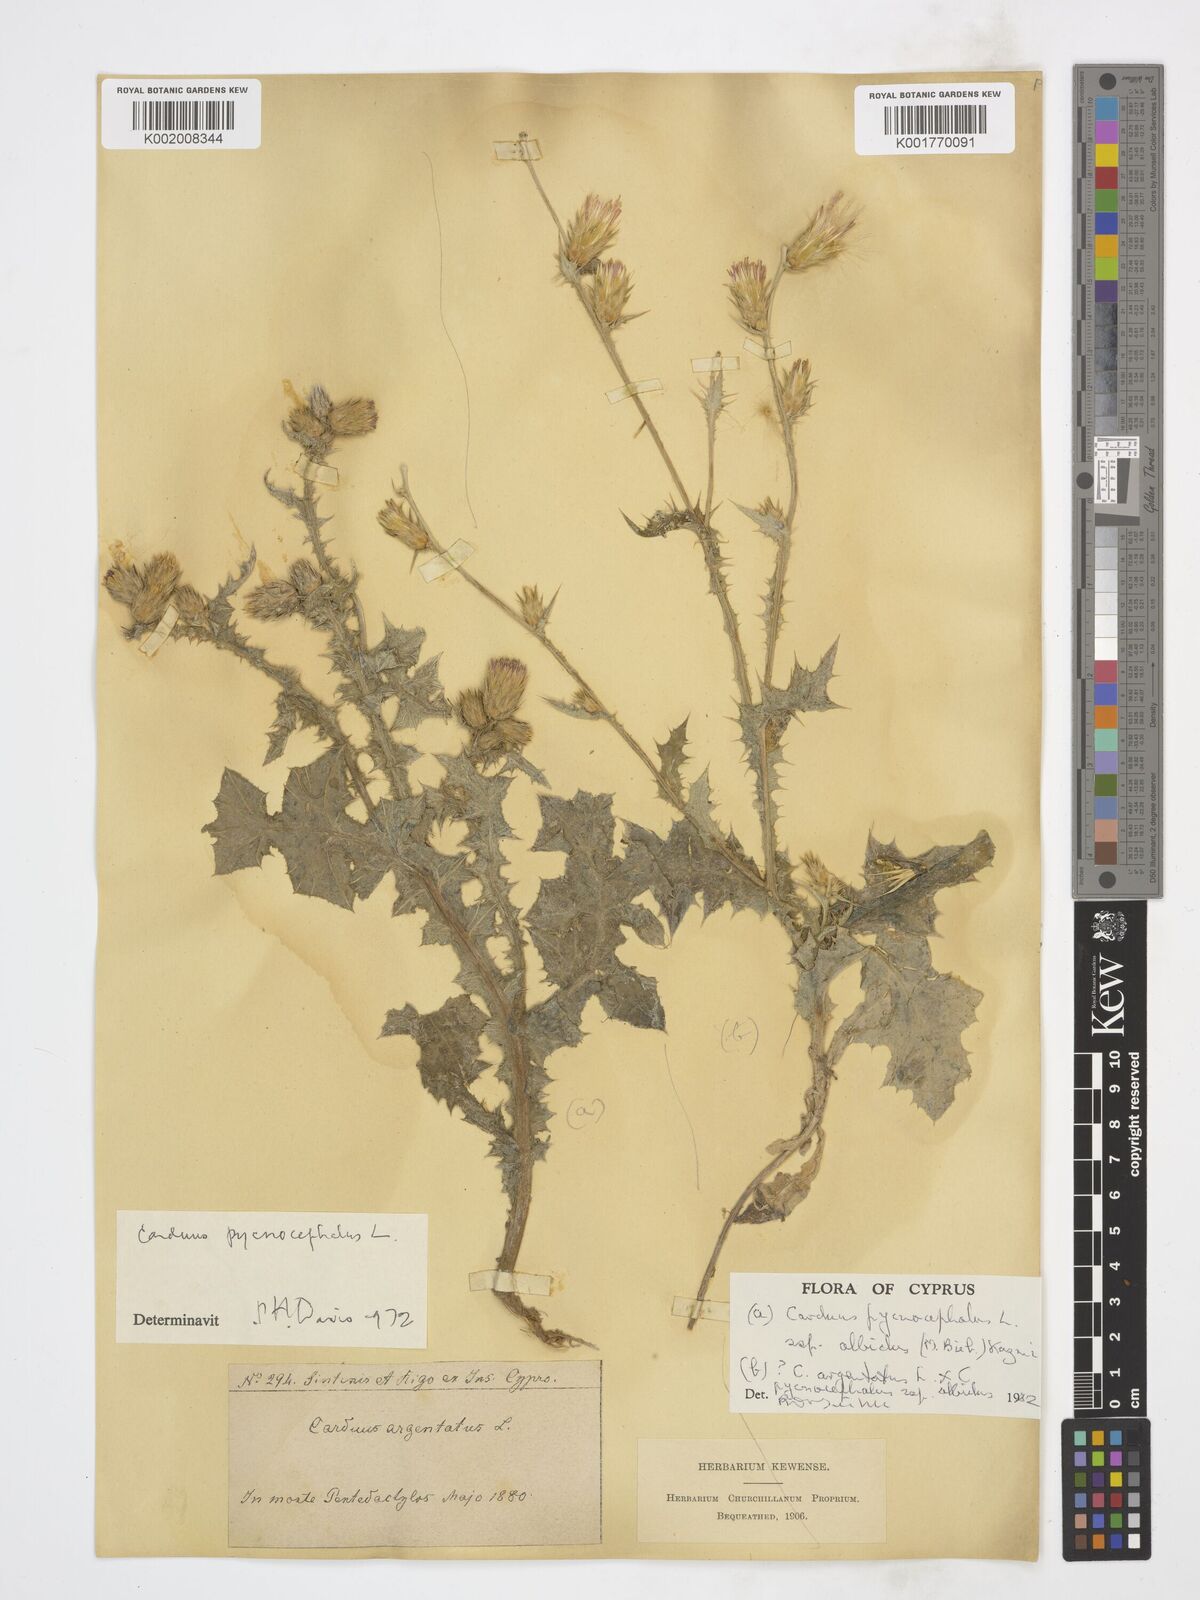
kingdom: Plantae
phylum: Tracheophyta
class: Magnoliopsida
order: Asterales
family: Asteraceae
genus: Carduus
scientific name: Carduus argentatus
